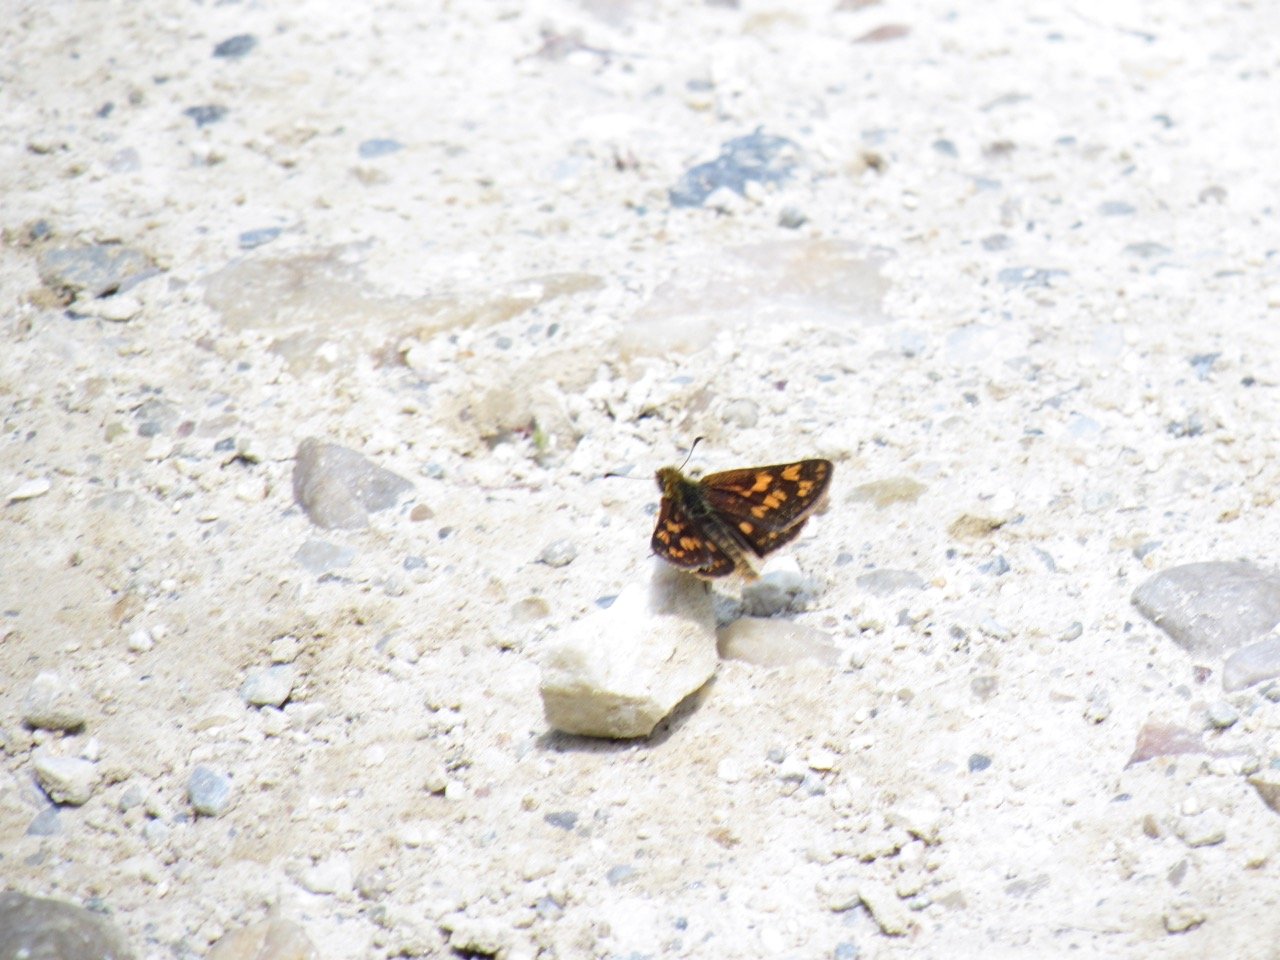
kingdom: Animalia
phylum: Arthropoda
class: Insecta
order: Lepidoptera
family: Hesperiidae
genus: Carterocephalus
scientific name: Carterocephalus palaemon
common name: Chequered Skipper
